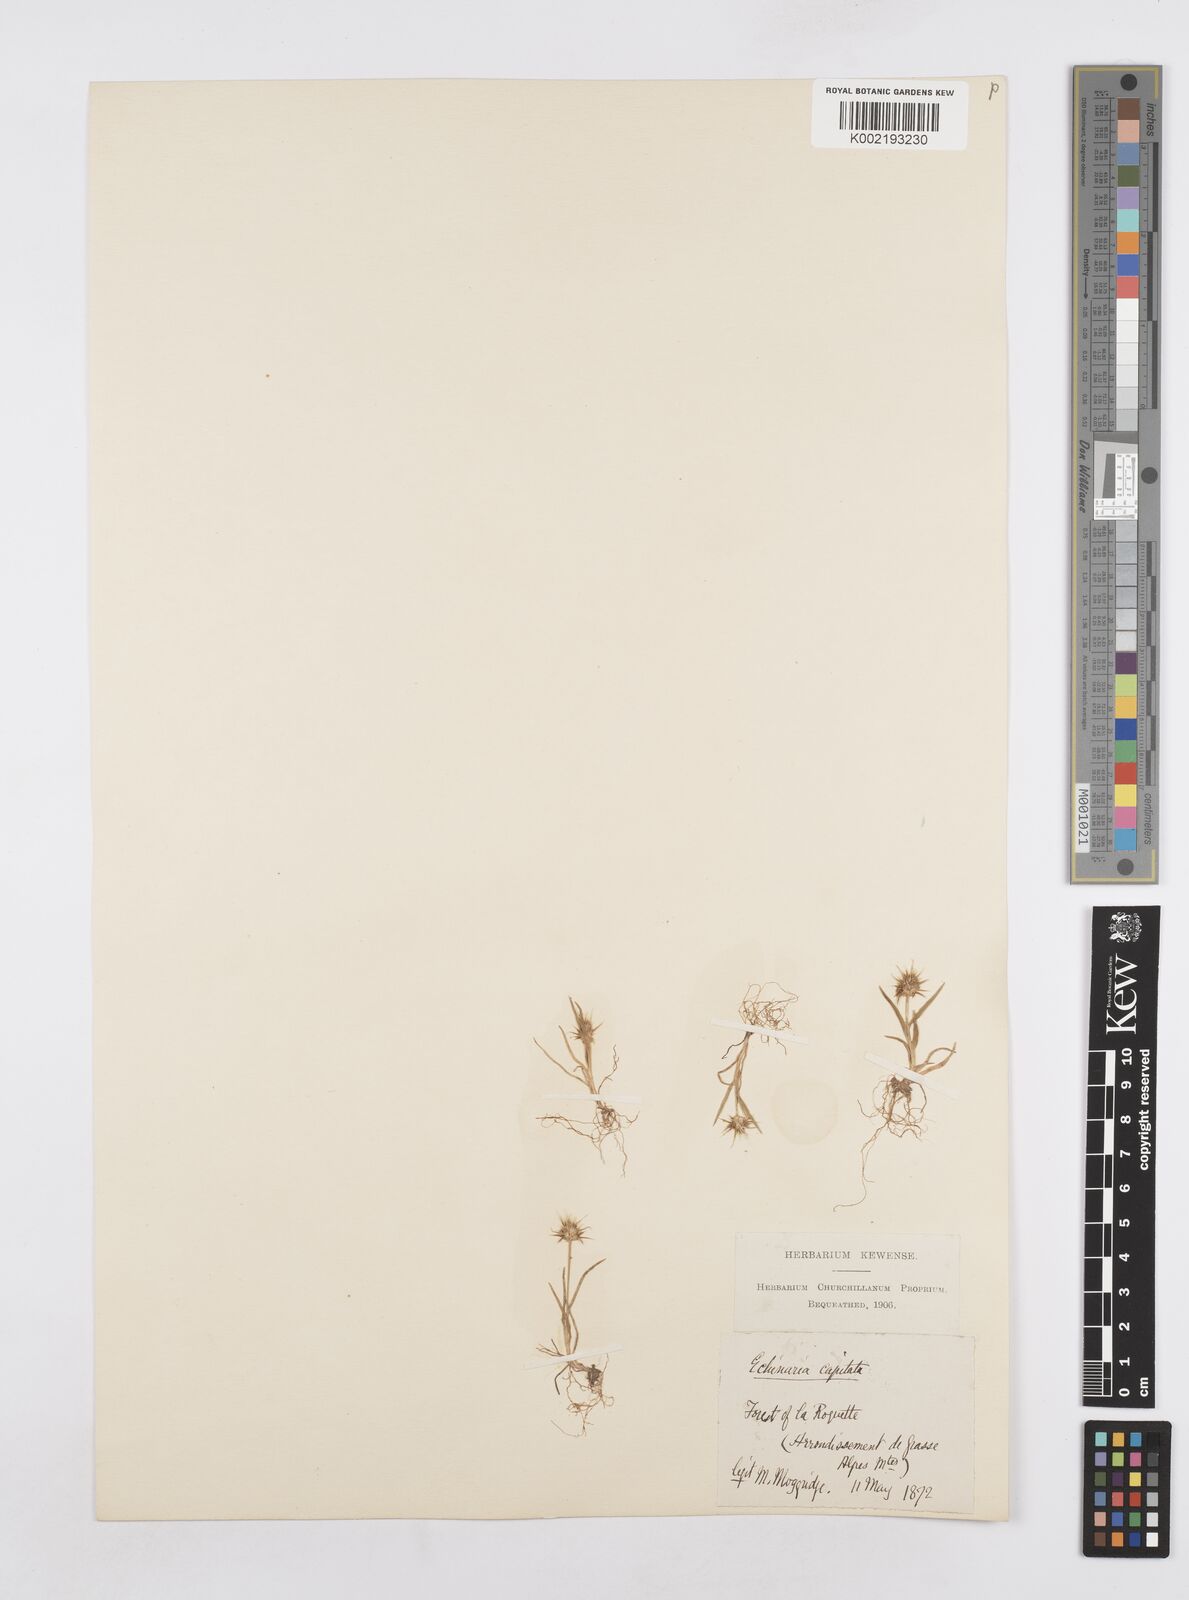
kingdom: Plantae
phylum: Tracheophyta
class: Liliopsida
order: Poales
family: Poaceae
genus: Echinaria
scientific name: Echinaria capitata
